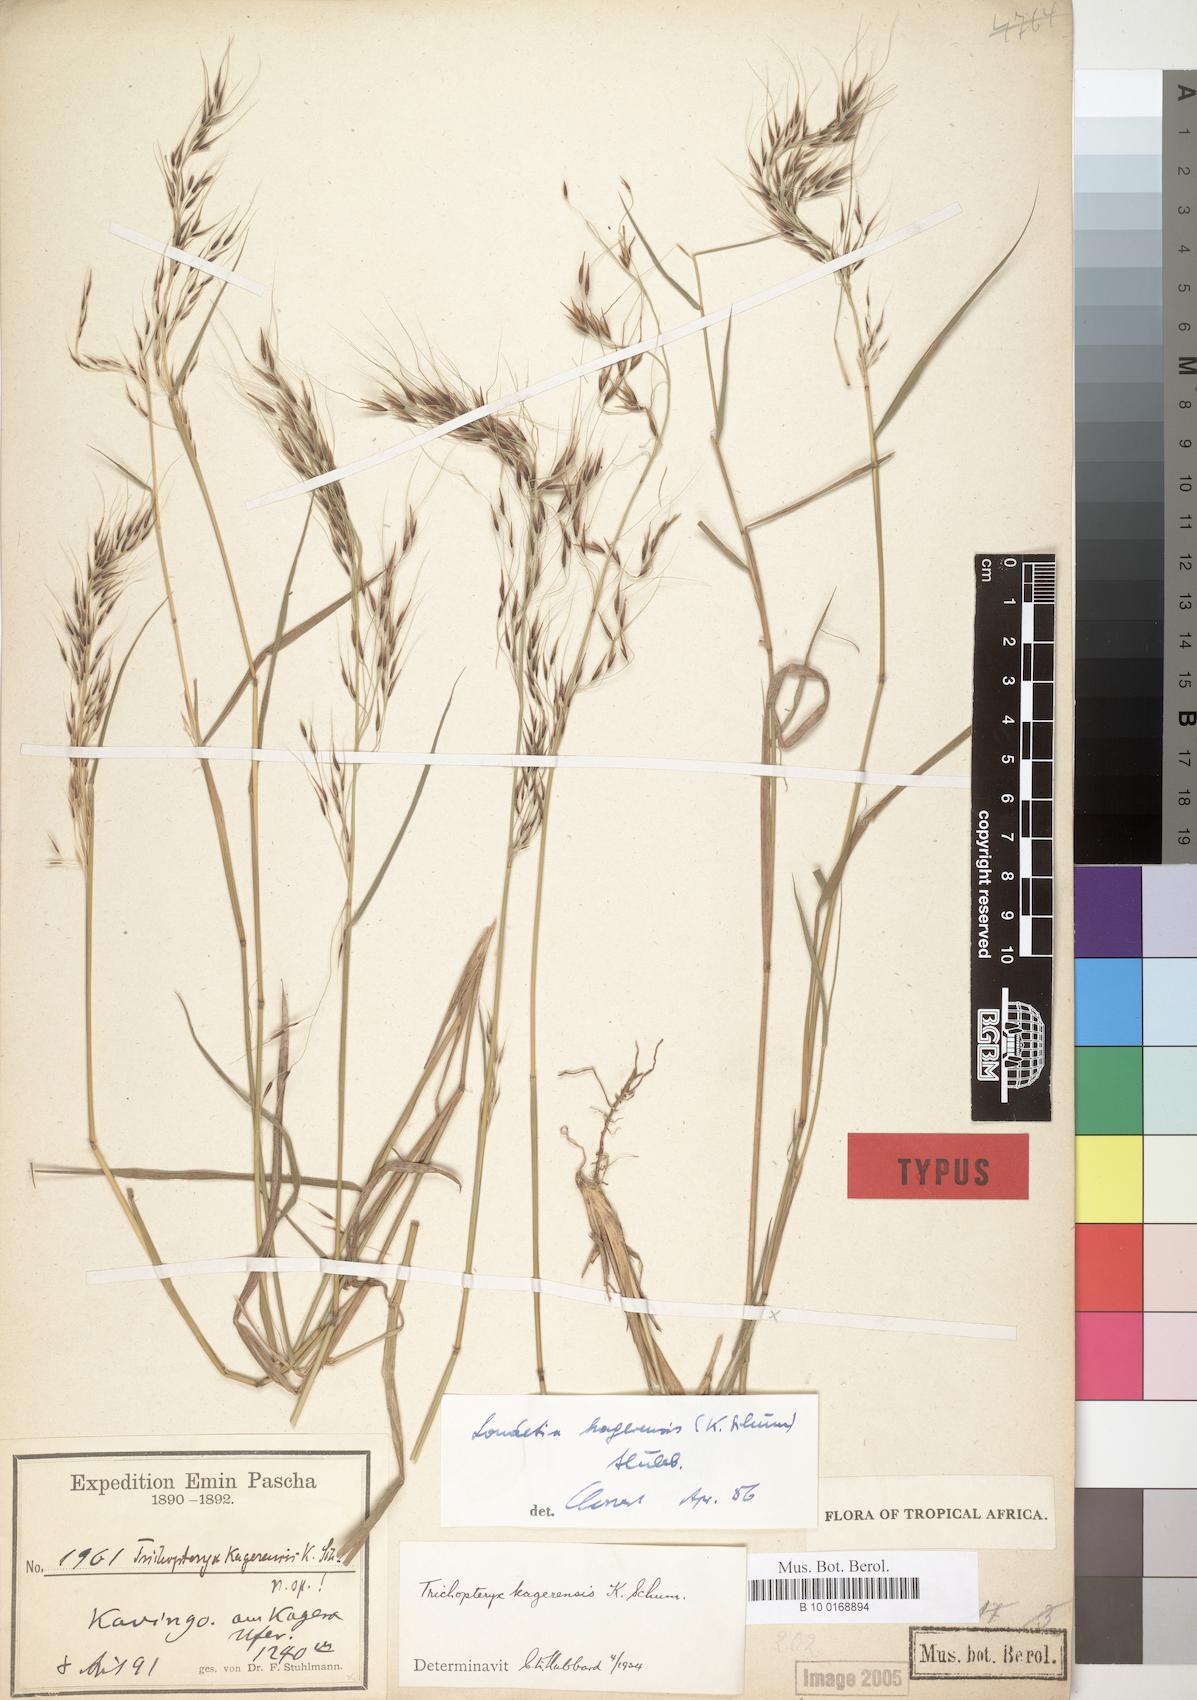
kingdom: Plantae
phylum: Tracheophyta
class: Liliopsida
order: Poales
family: Poaceae
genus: Loudetia
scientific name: Loudetia kagerensis
